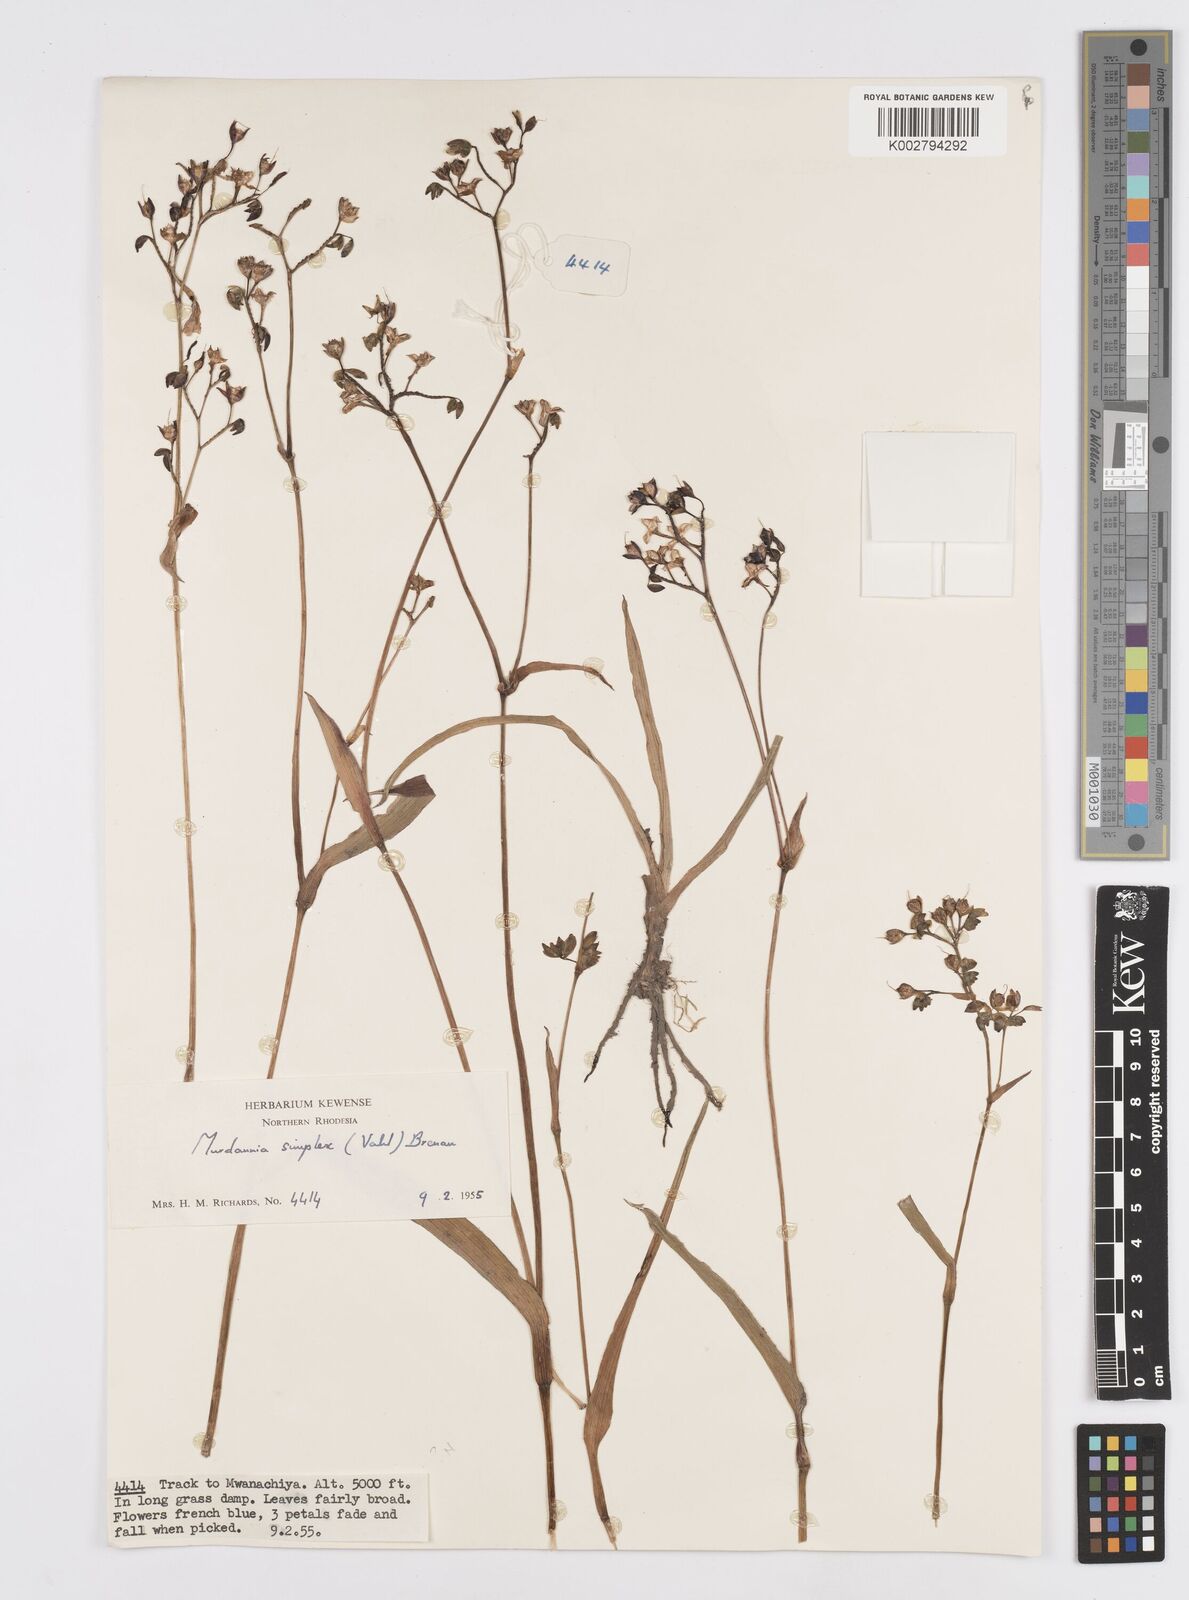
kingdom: Plantae
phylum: Tracheophyta
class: Liliopsida
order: Commelinales
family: Commelinaceae
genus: Murdannia
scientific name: Murdannia simplex
